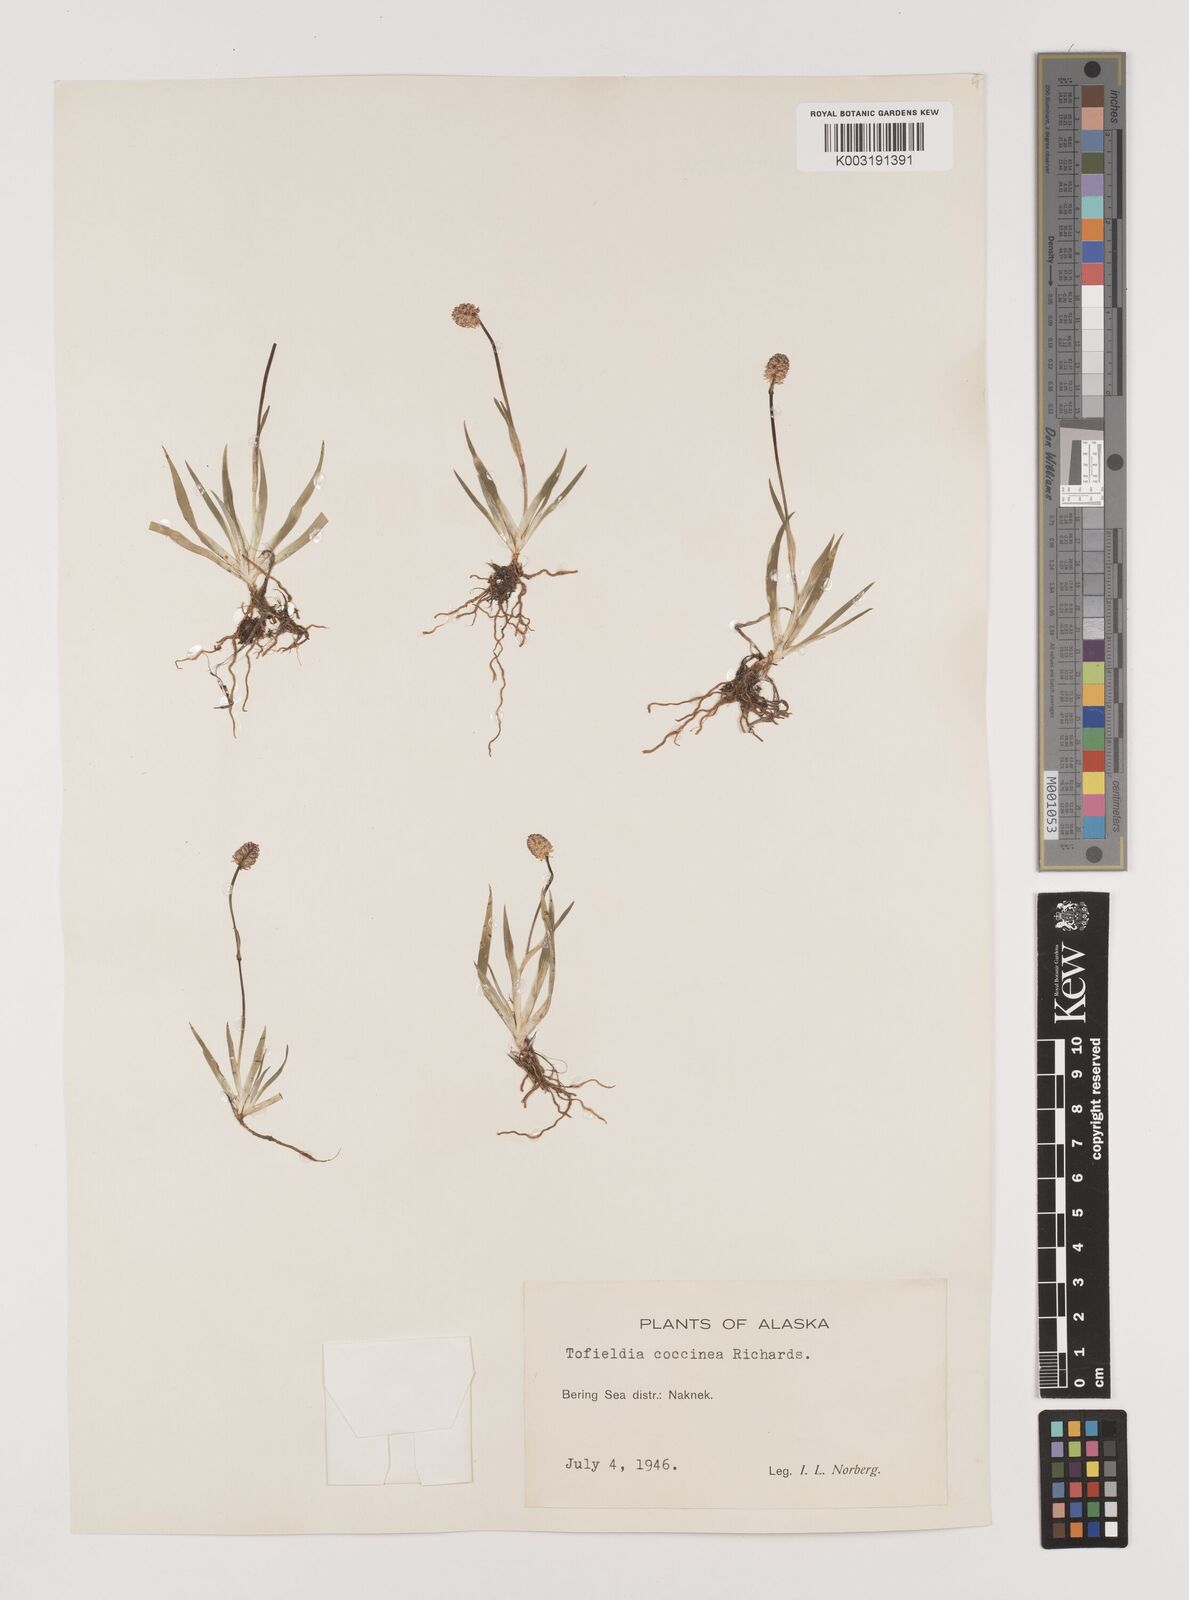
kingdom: Plantae
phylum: Tracheophyta
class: Liliopsida
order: Alismatales
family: Tofieldiaceae
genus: Tofieldia
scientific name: Tofieldia coccinea
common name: Northern false asphodel
